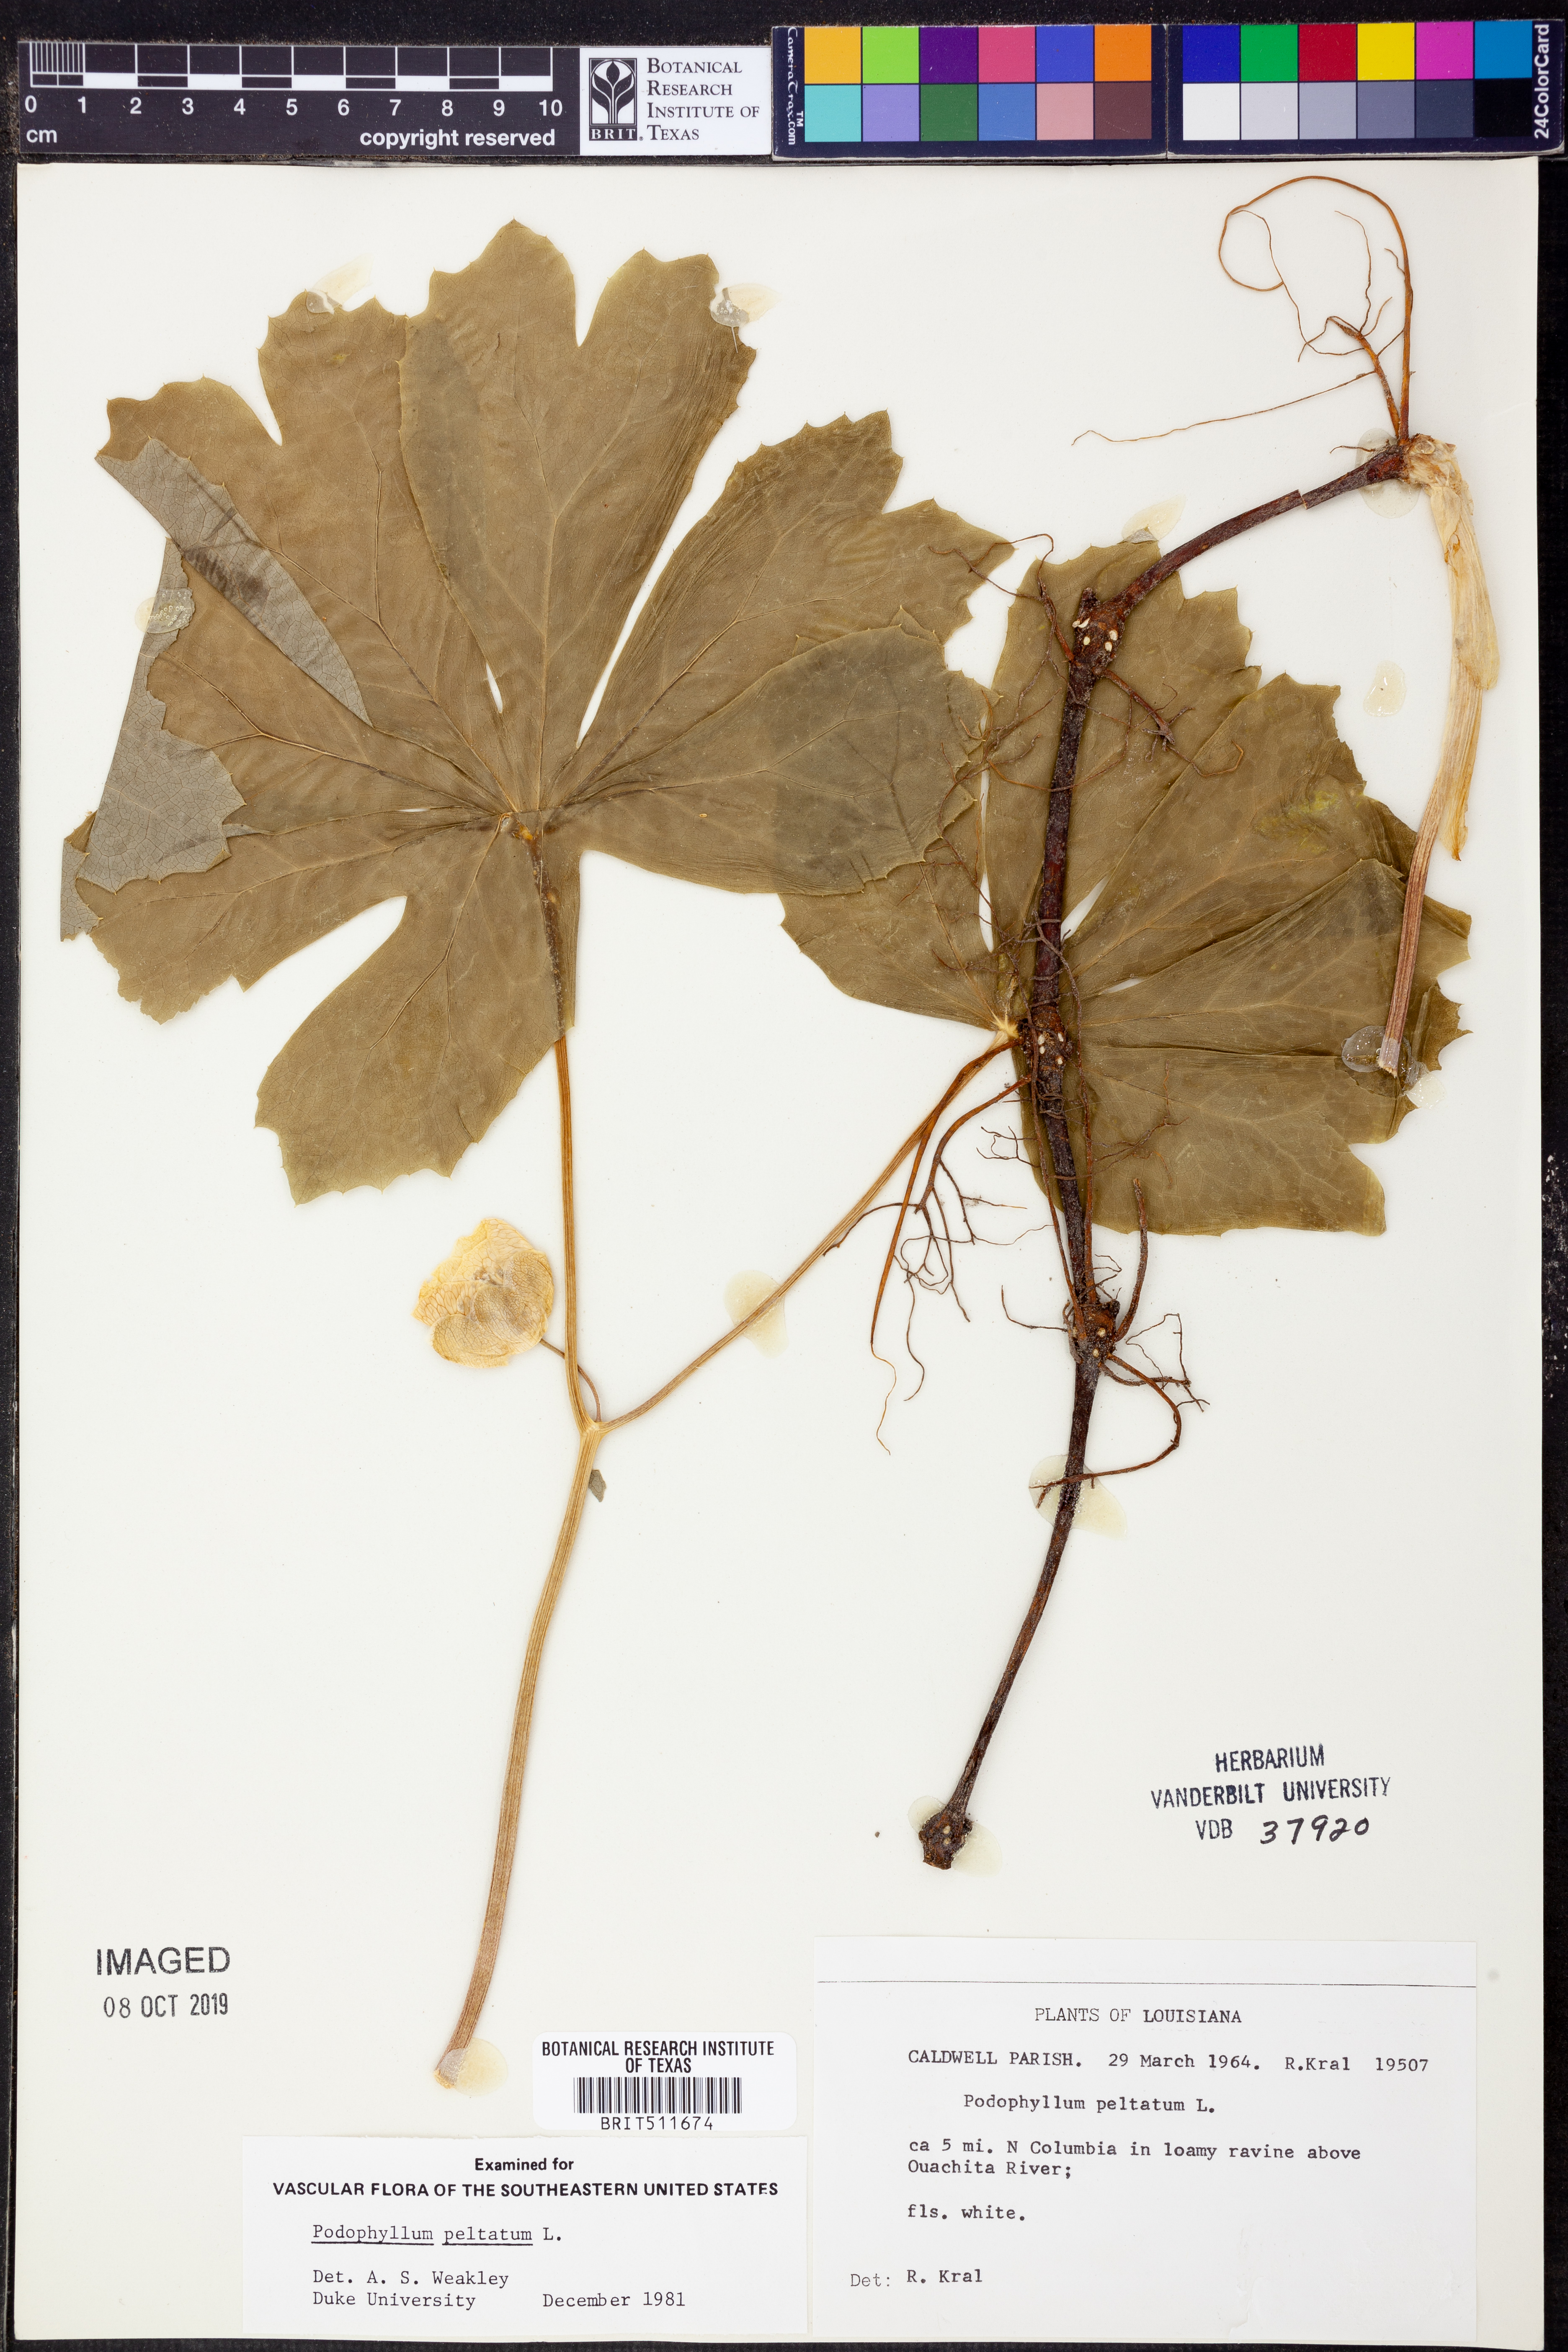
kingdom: Plantae
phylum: Tracheophyta
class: Magnoliopsida
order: Ranunculales
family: Berberidaceae
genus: Podophyllum
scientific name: Podophyllum peltatum
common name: Wild mandrake
